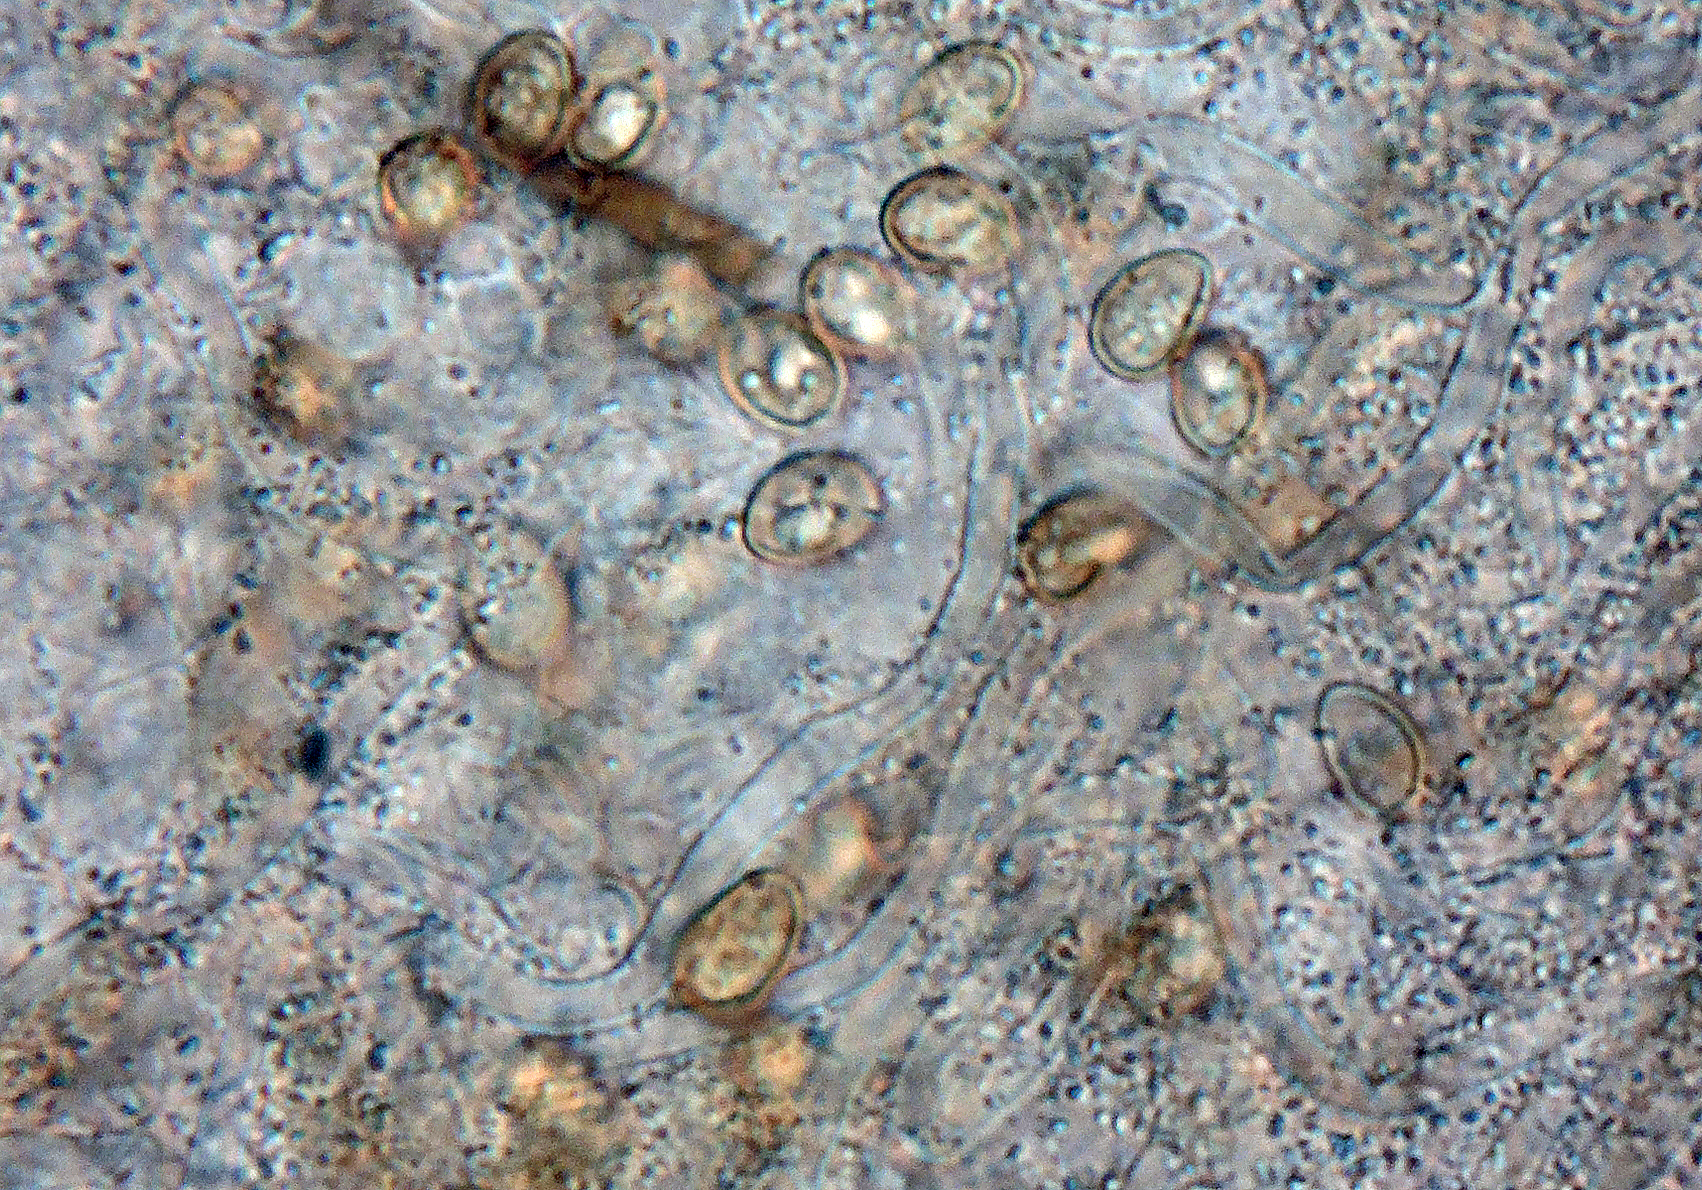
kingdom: Fungi
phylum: Basidiomycota
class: Agaricomycetes
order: Agaricales
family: Crepidotaceae
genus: Episphaeria
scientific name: Episphaeria fraxinicola
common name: askeskål
